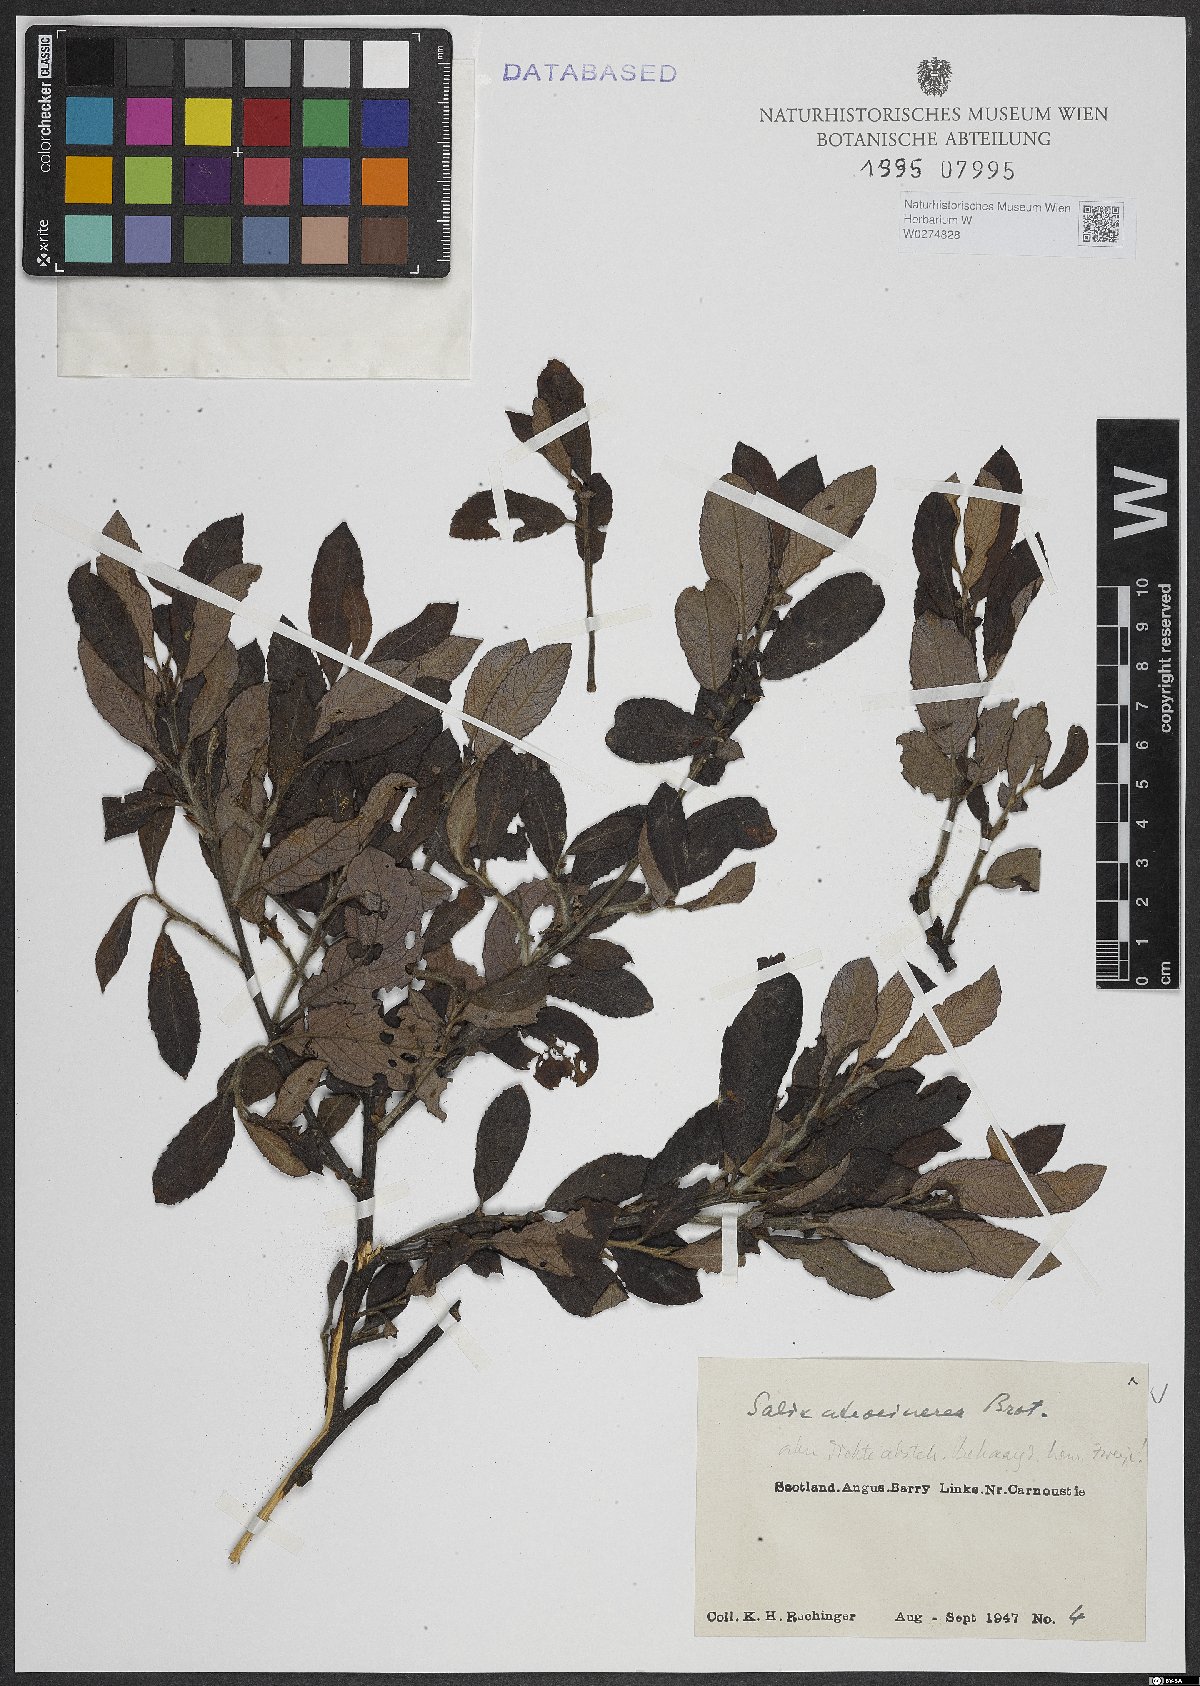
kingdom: Plantae
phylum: Tracheophyta
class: Magnoliopsida
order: Malpighiales
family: Salicaceae
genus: Salix
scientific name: Salix atrocinerea
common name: Rusty willow
